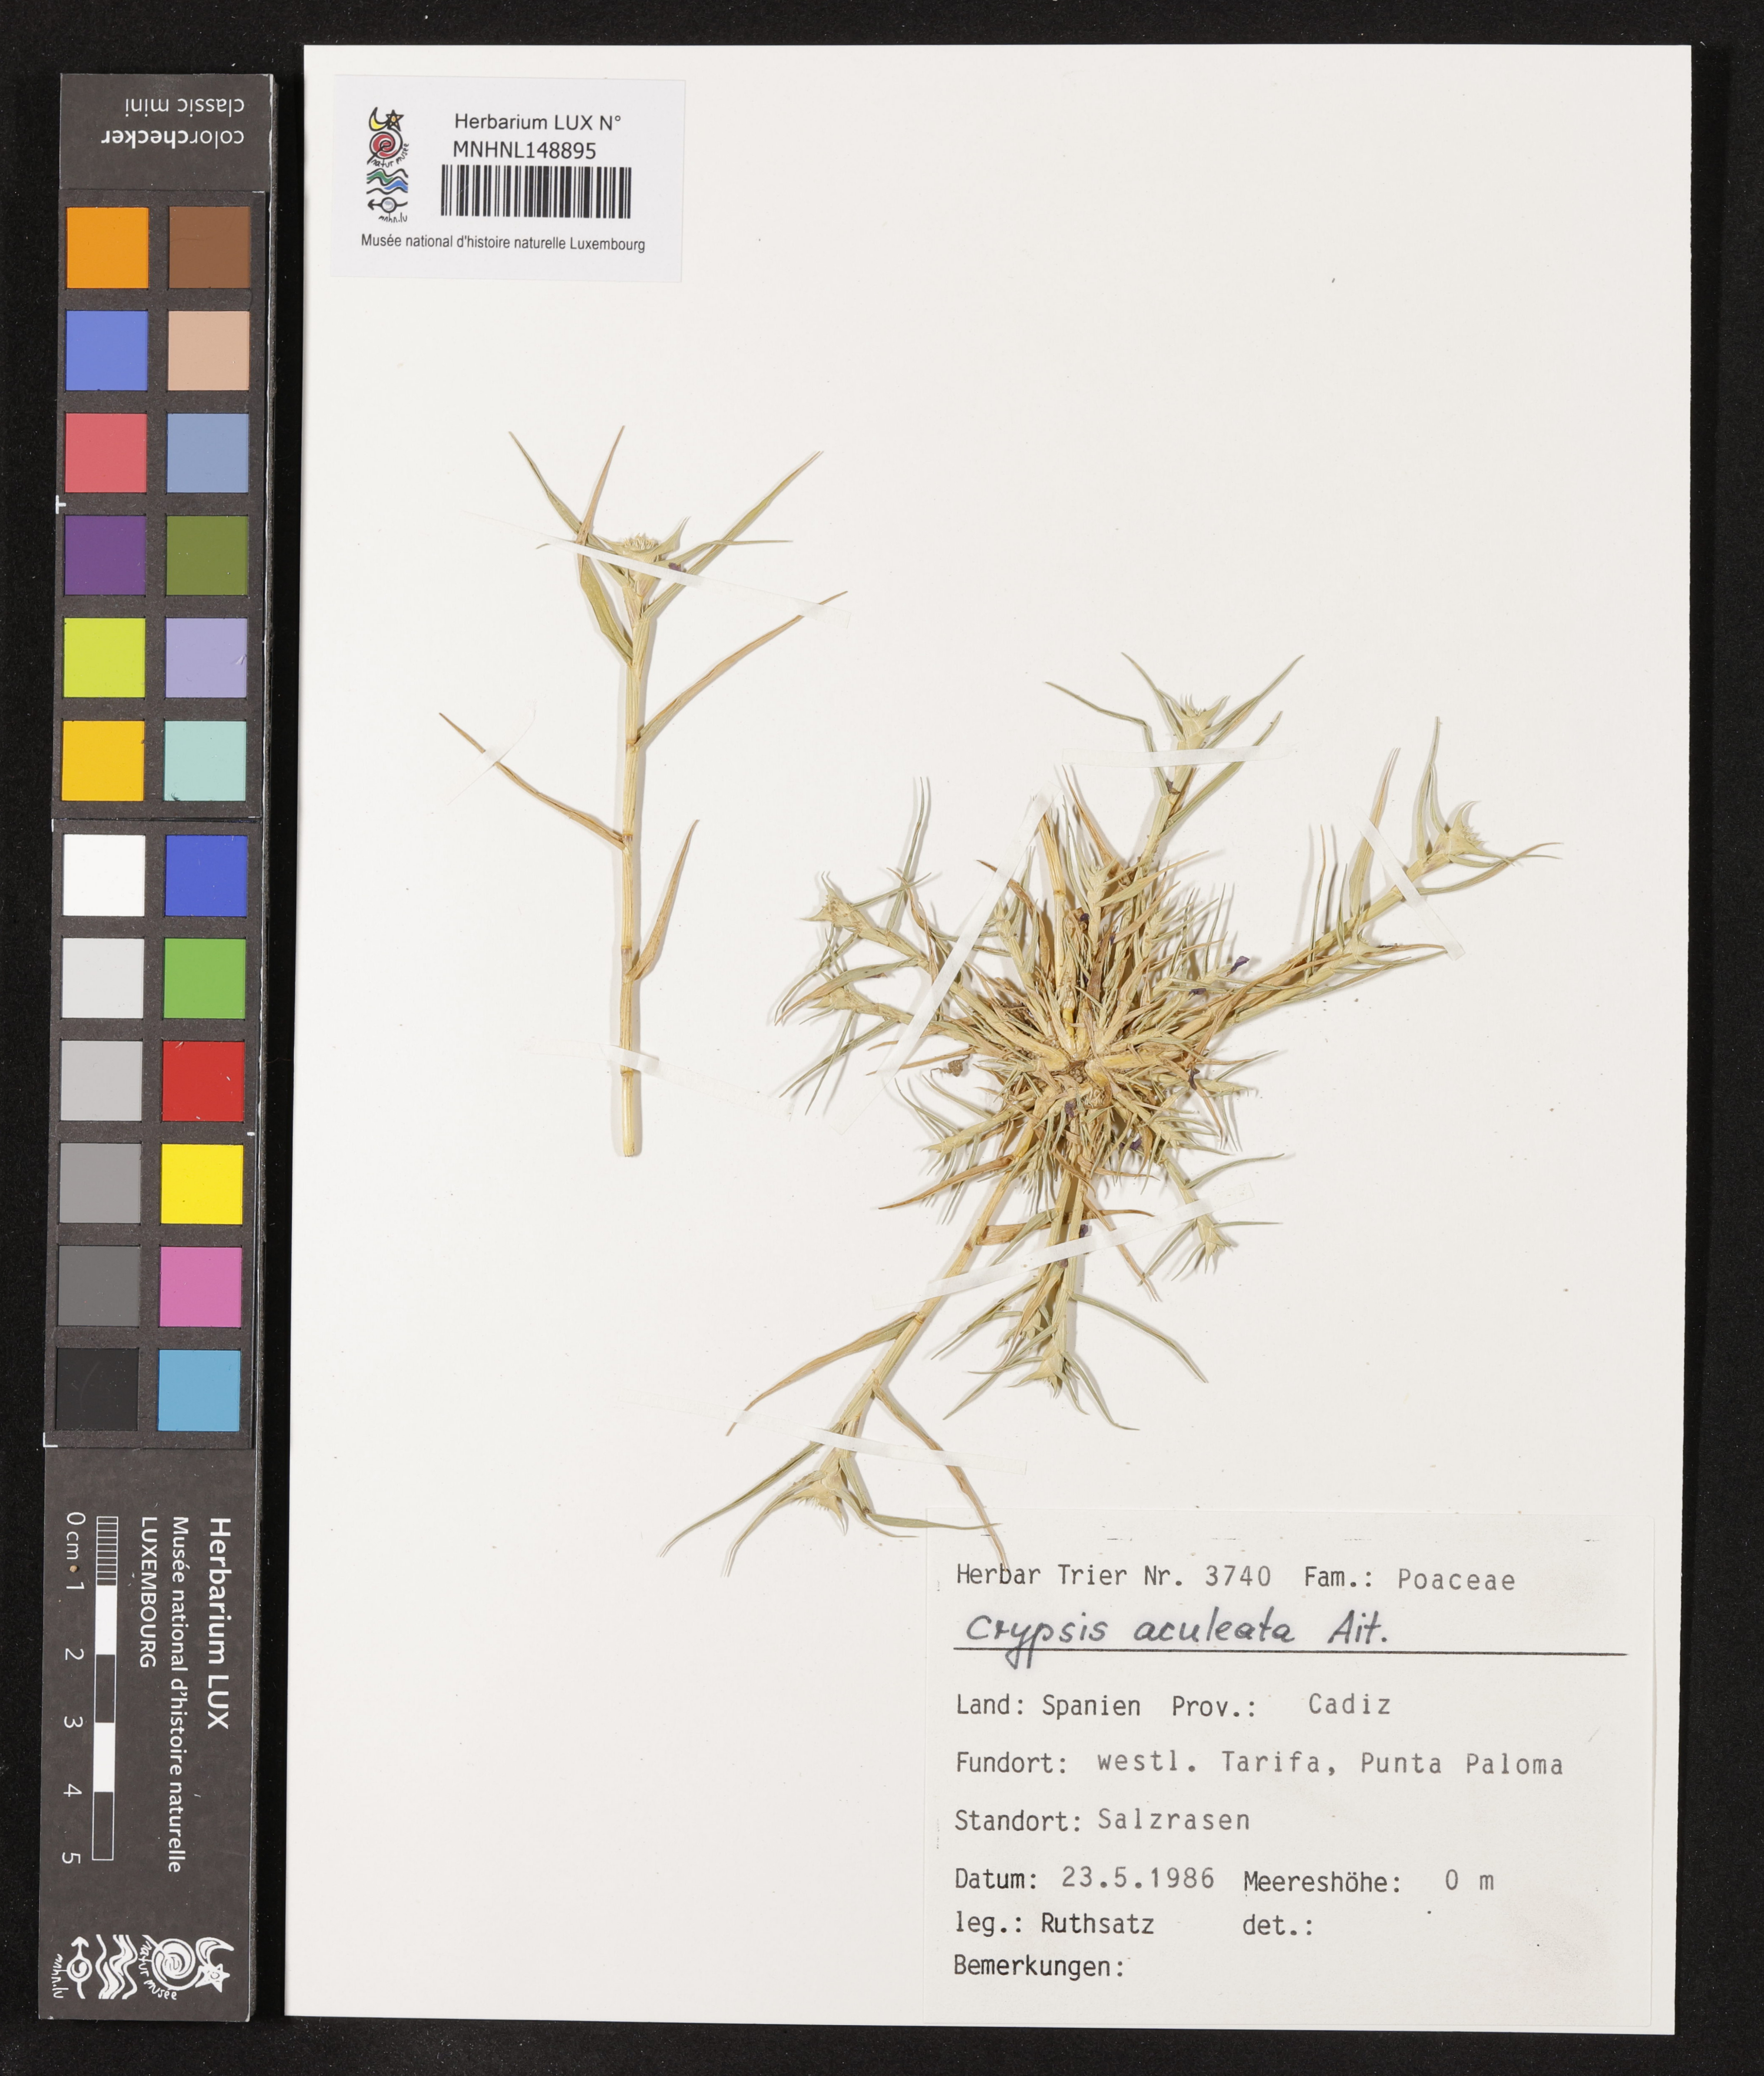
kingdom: Plantae
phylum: Tracheophyta
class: Liliopsida
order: Poales
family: Poaceae
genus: Sporobolus
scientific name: Sporobolus aculeatus
